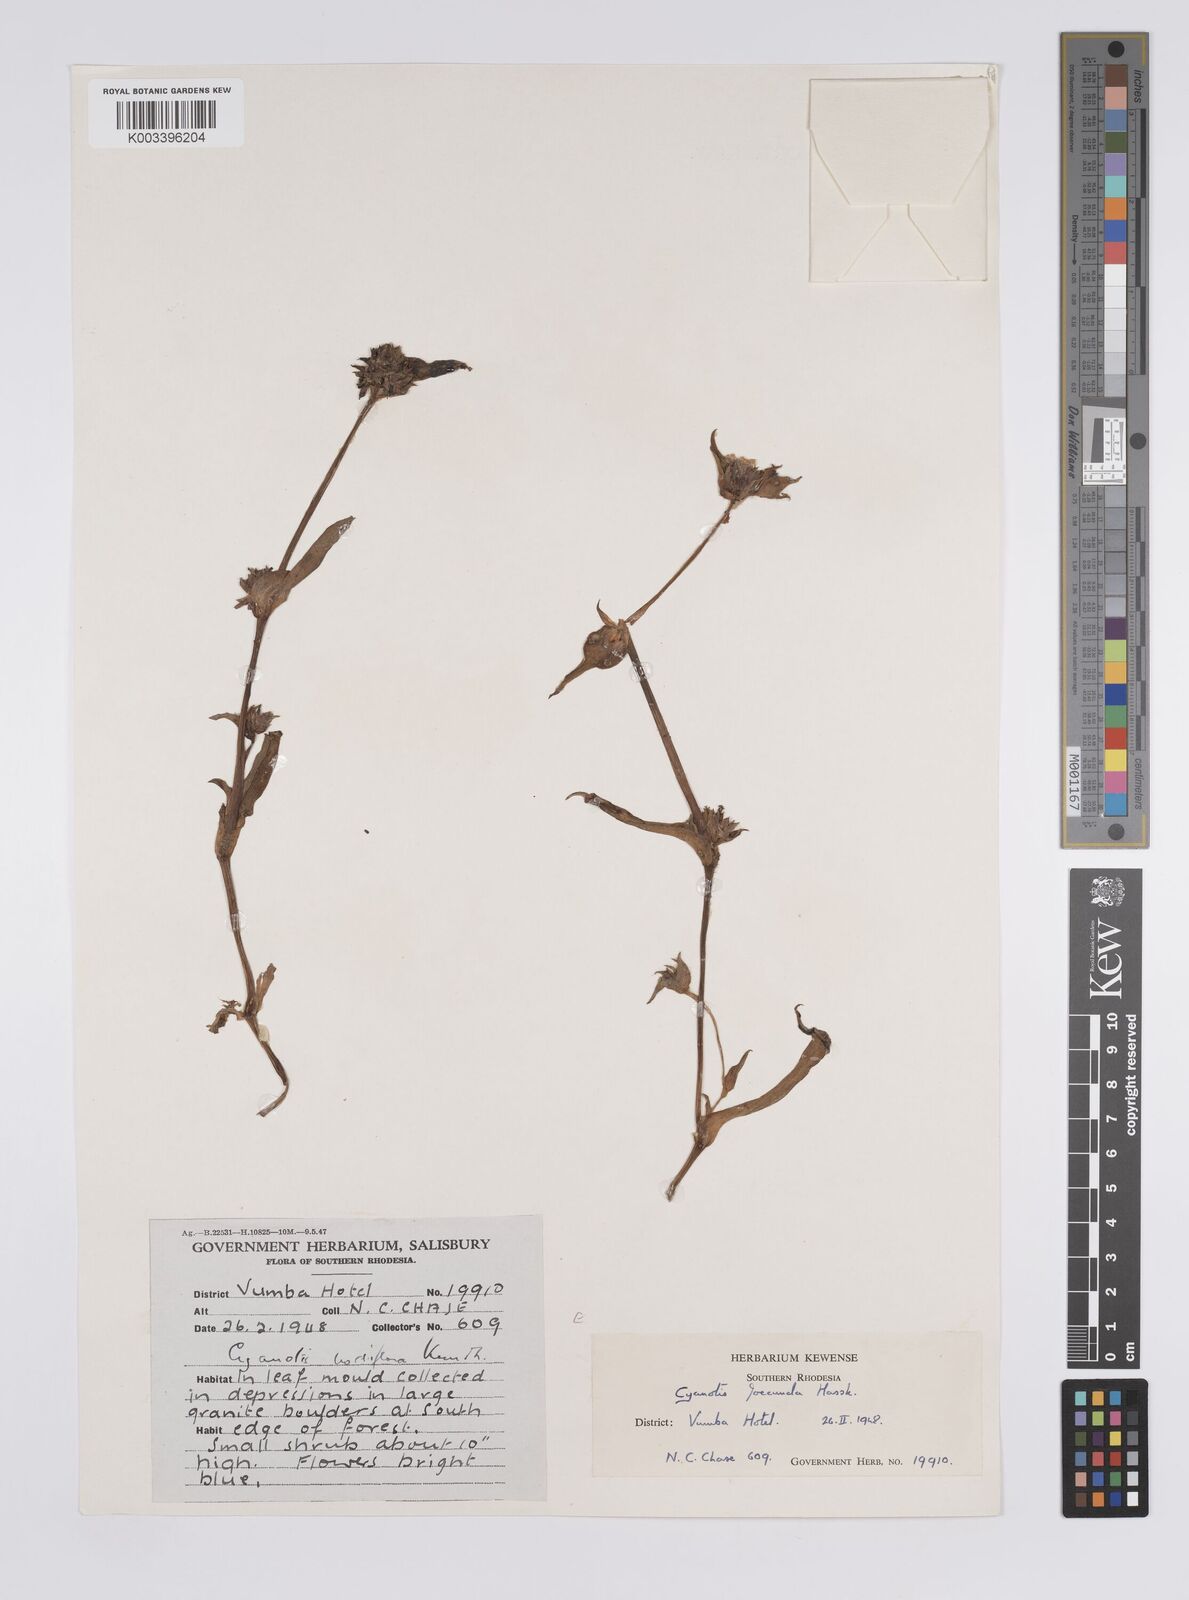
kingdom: Plantae
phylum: Tracheophyta
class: Liliopsida
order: Commelinales
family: Commelinaceae
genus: Cyanotis
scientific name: Cyanotis foecunda
